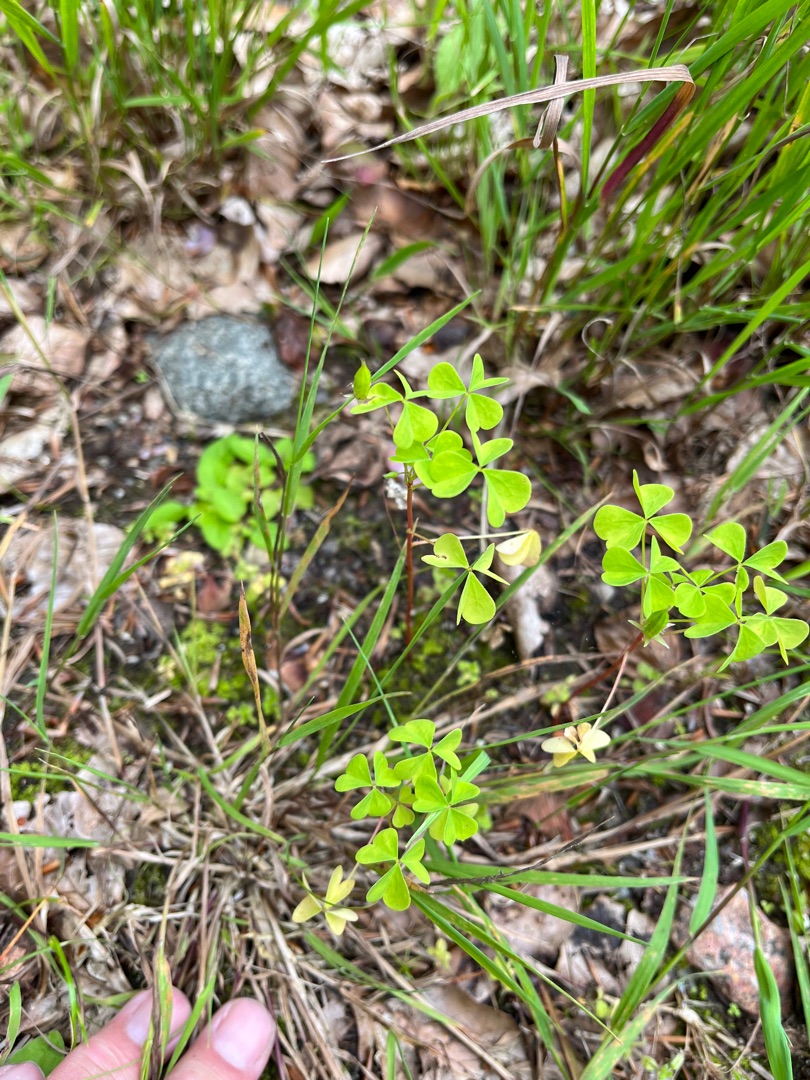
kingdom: Plantae
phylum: Tracheophyta
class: Magnoliopsida
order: Oxalidales
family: Oxalidaceae
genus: Oxalis
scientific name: Oxalis stricta
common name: Rank surkløver
